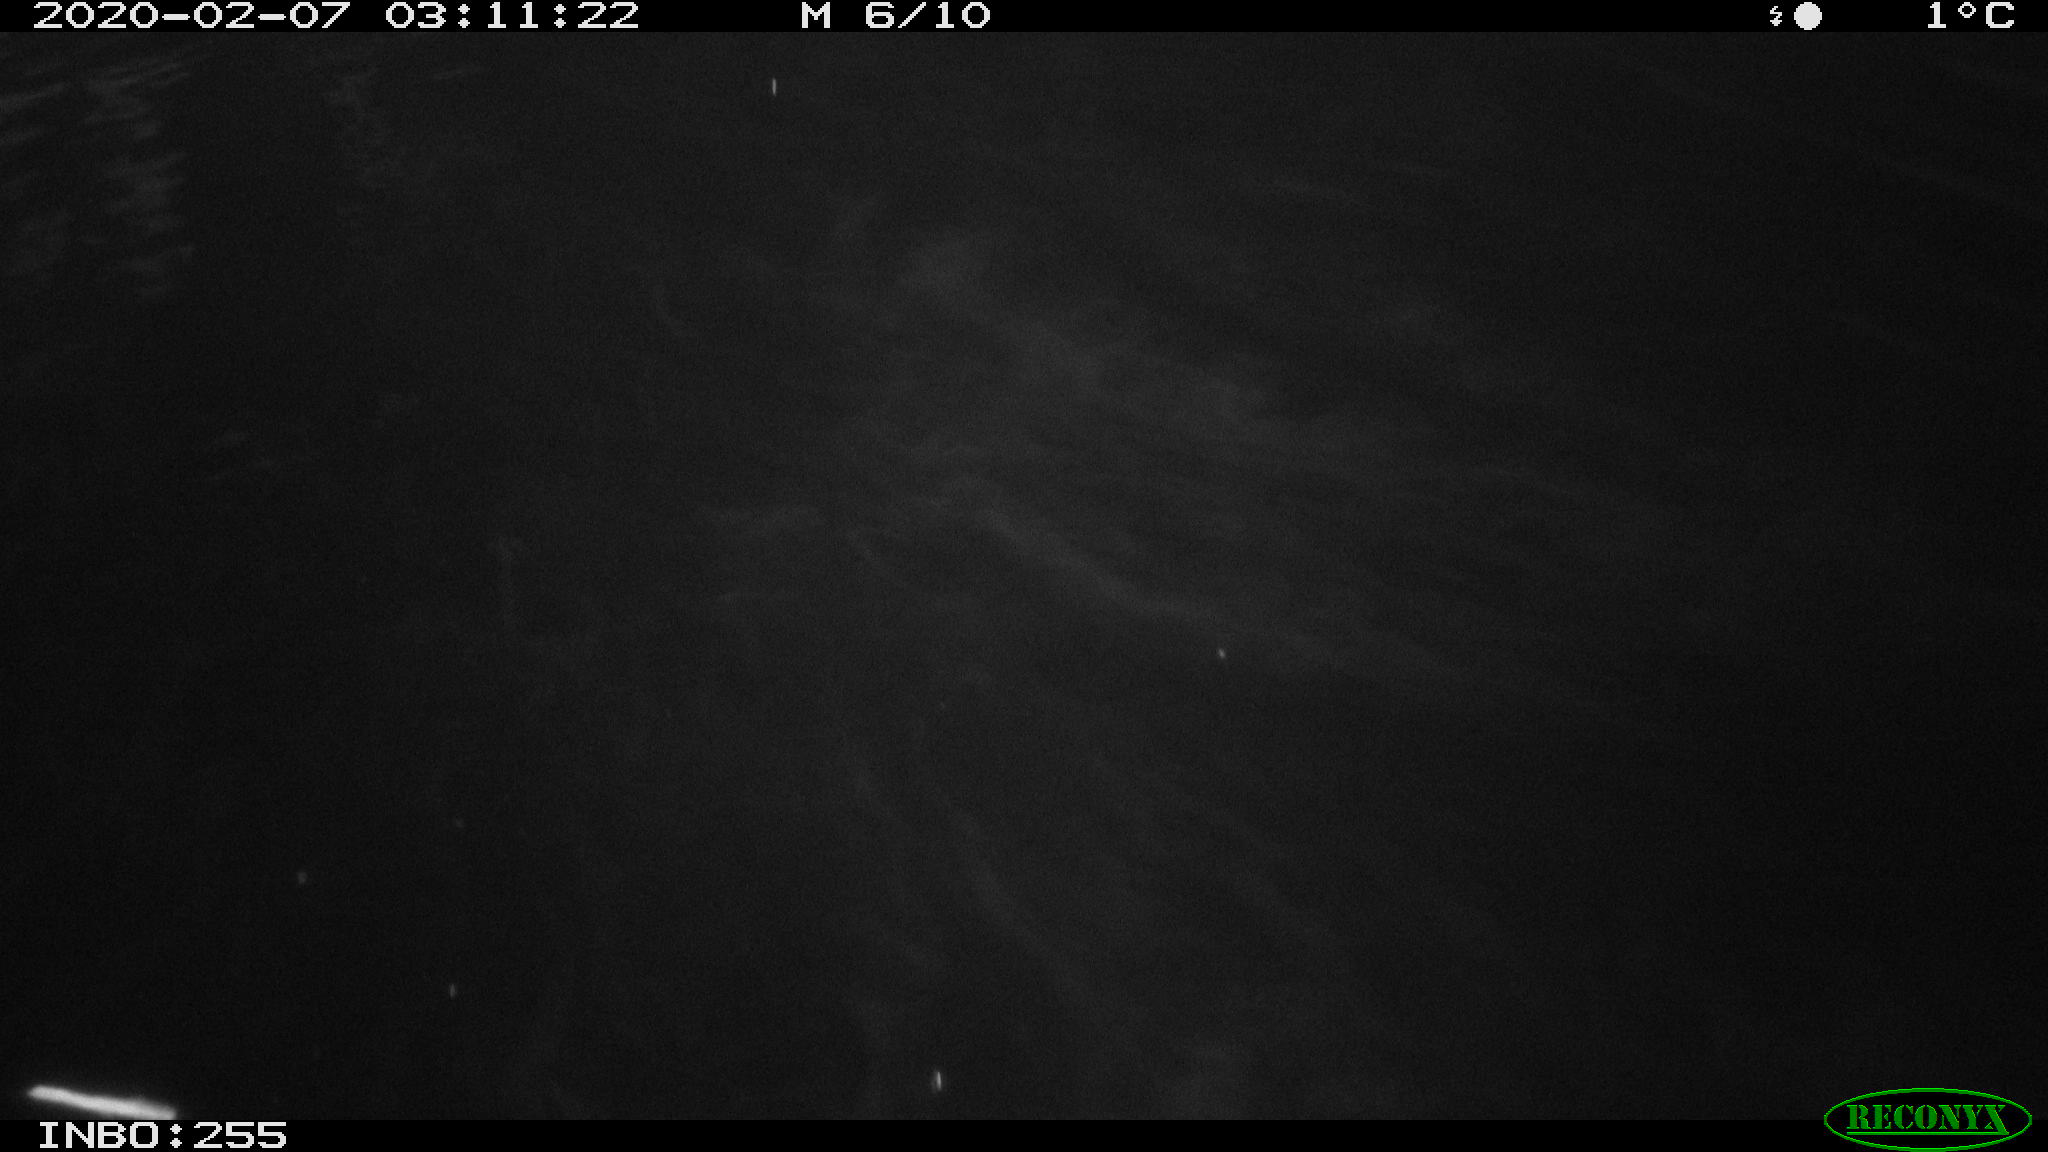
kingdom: Animalia
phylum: Chordata
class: Aves
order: Anseriformes
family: Anatidae
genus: Anas
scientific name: Anas platyrhynchos
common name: Mallard
